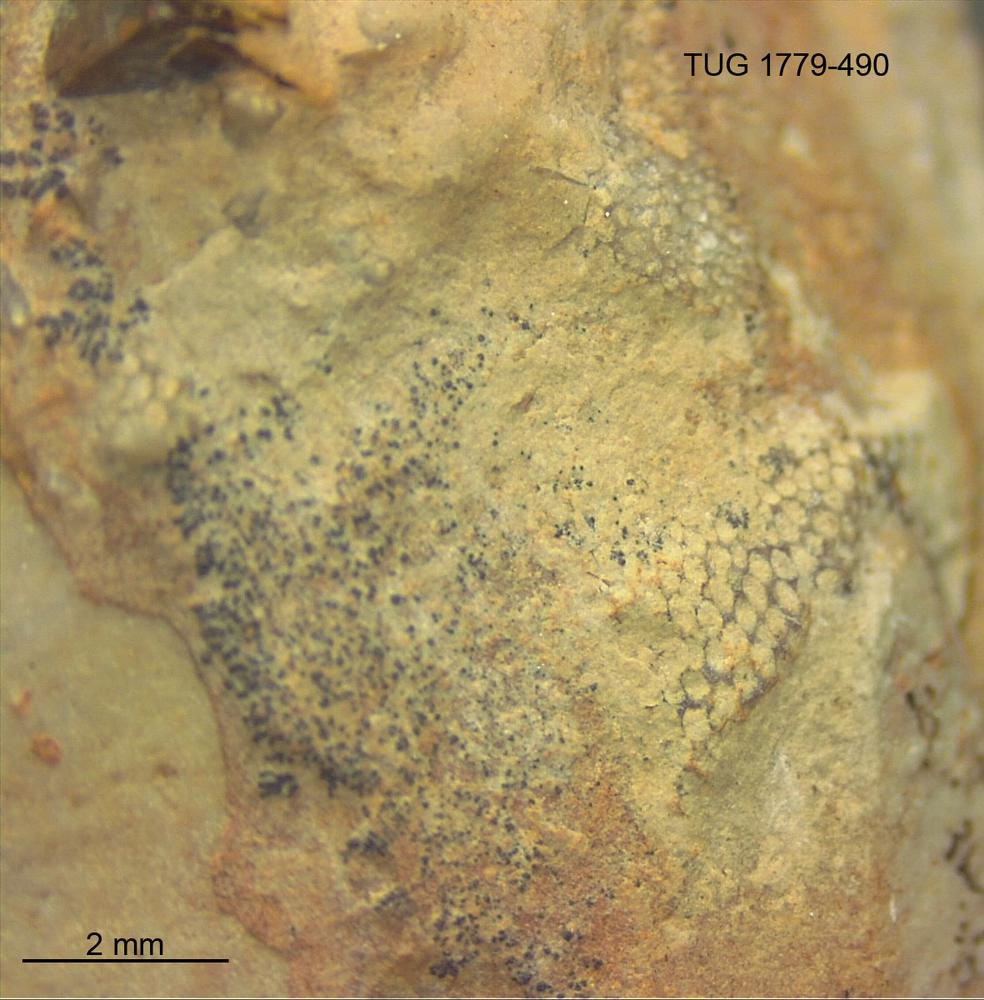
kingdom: Animalia
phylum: Bryozoa
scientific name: Bryozoa
